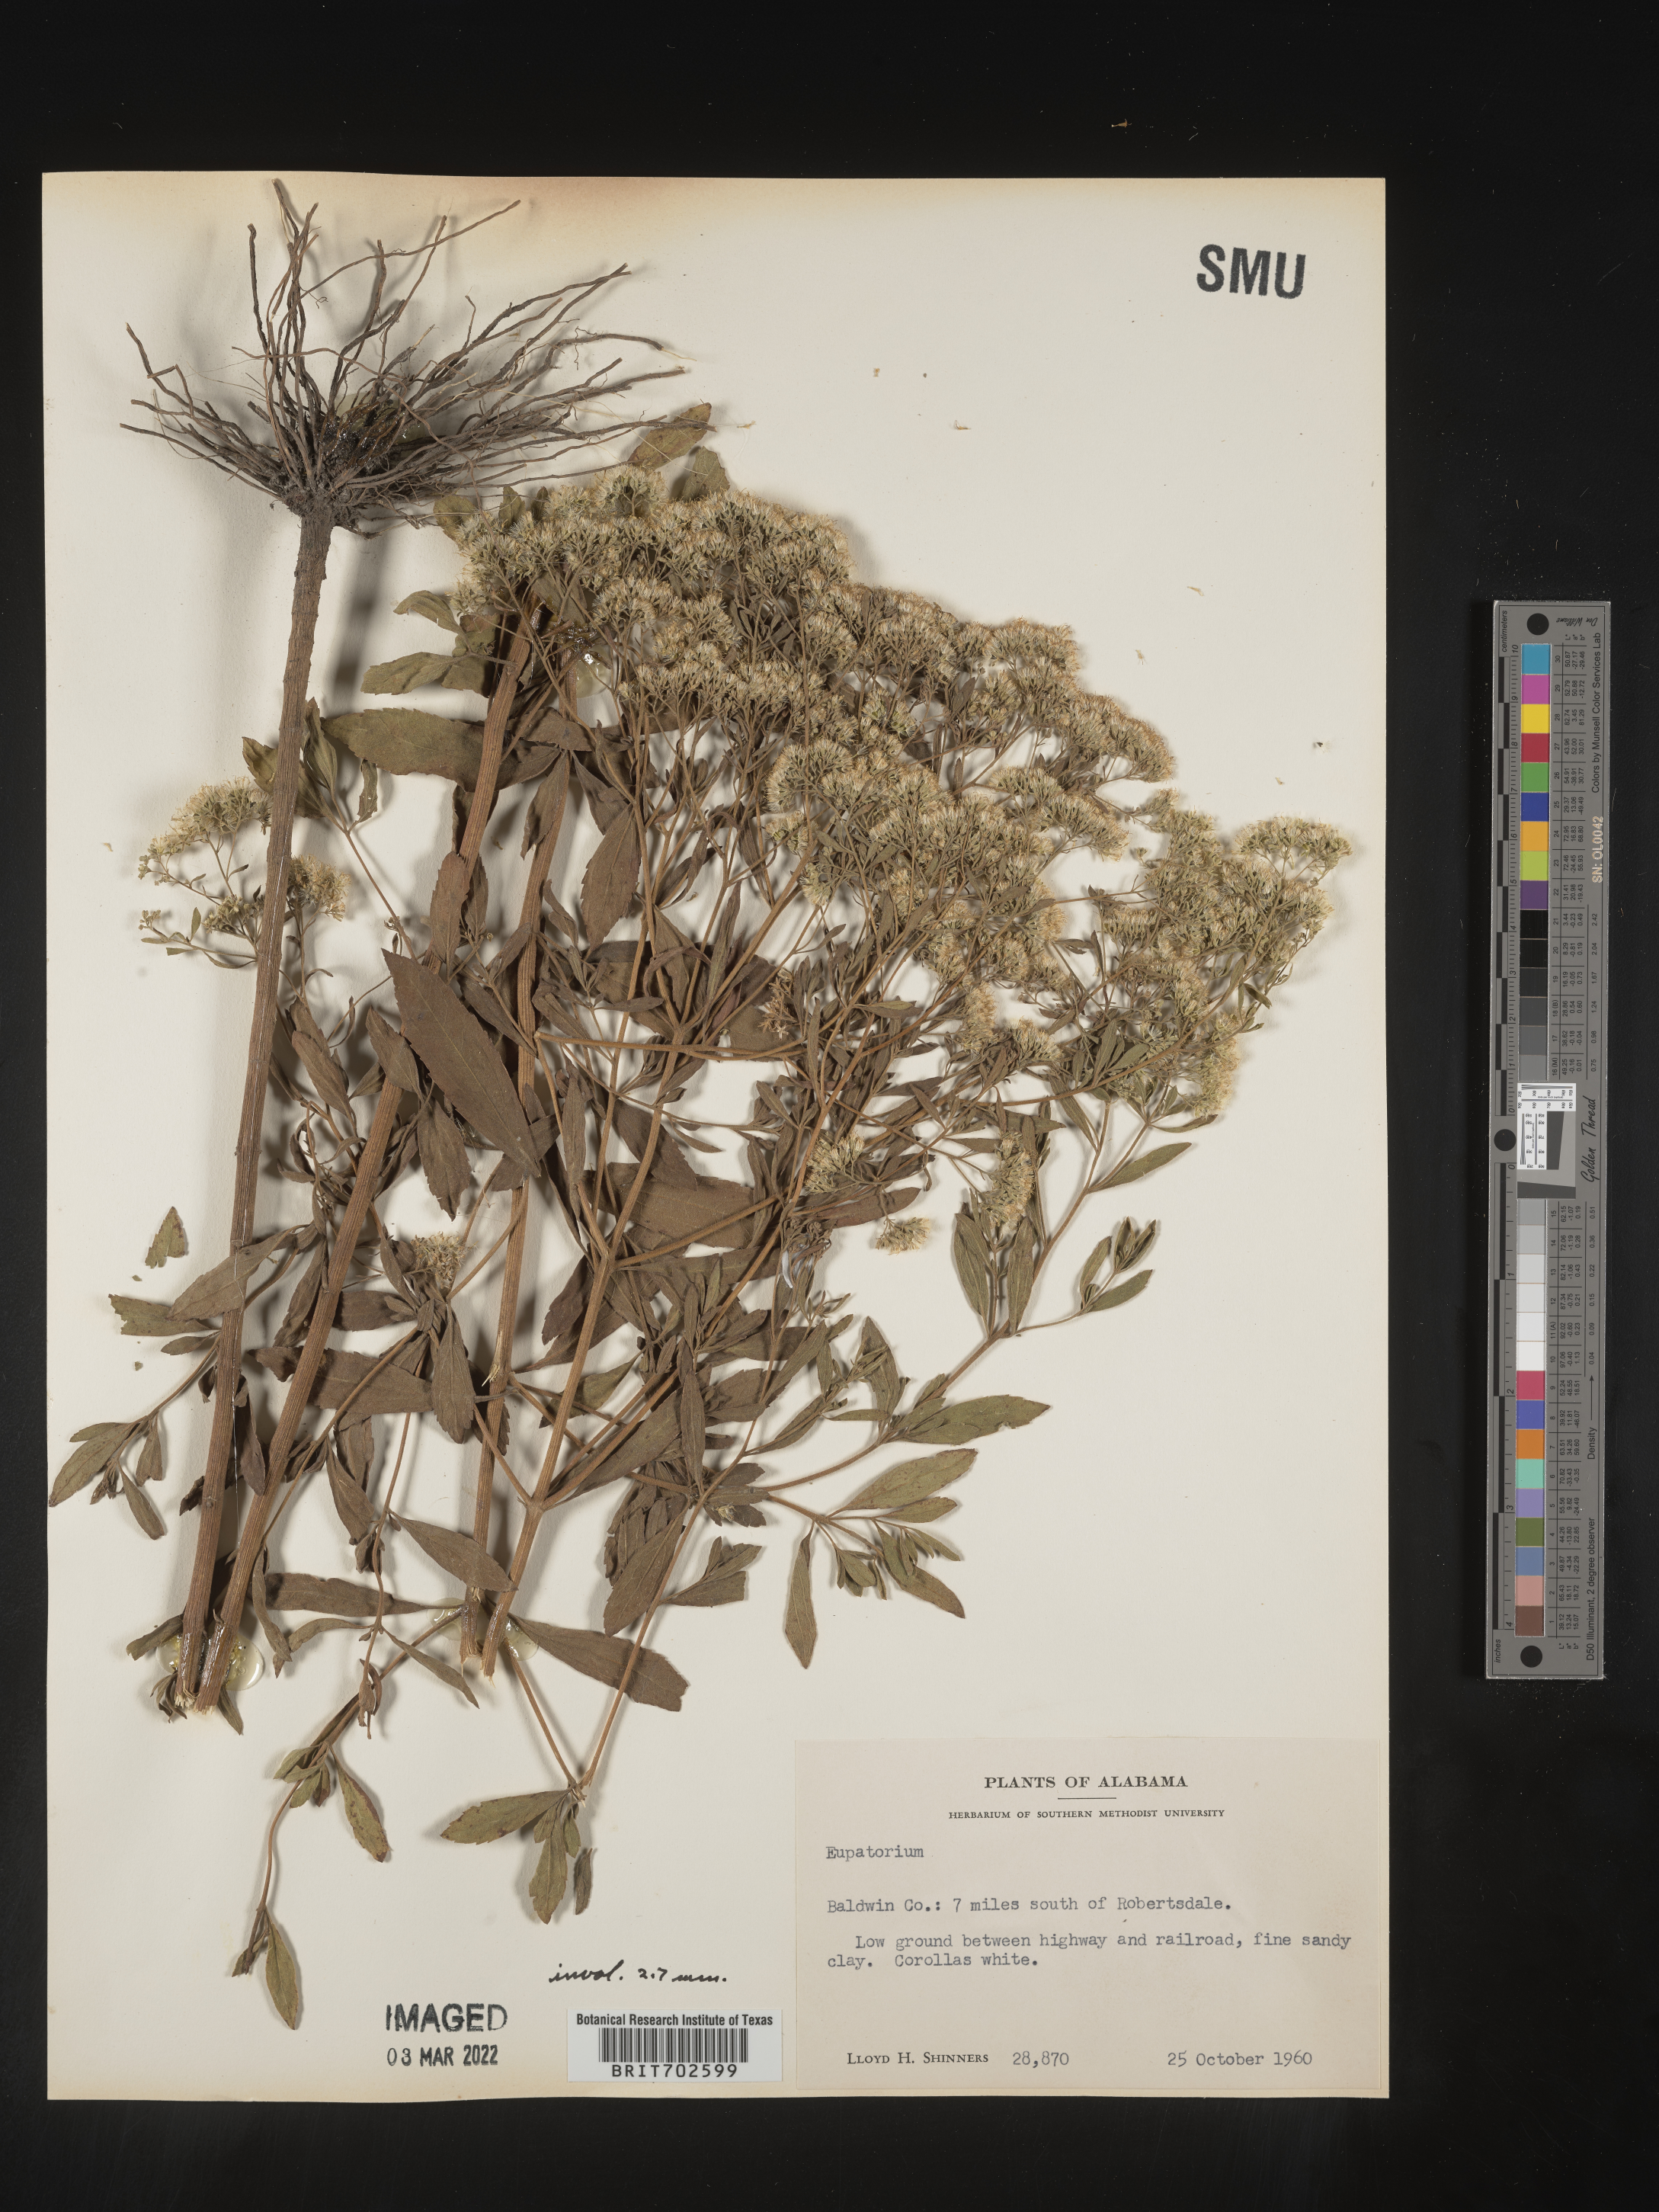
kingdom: Plantae
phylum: Tracheophyta
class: Magnoliopsida
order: Asterales
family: Asteraceae
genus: Eupatorium
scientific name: Eupatorium
